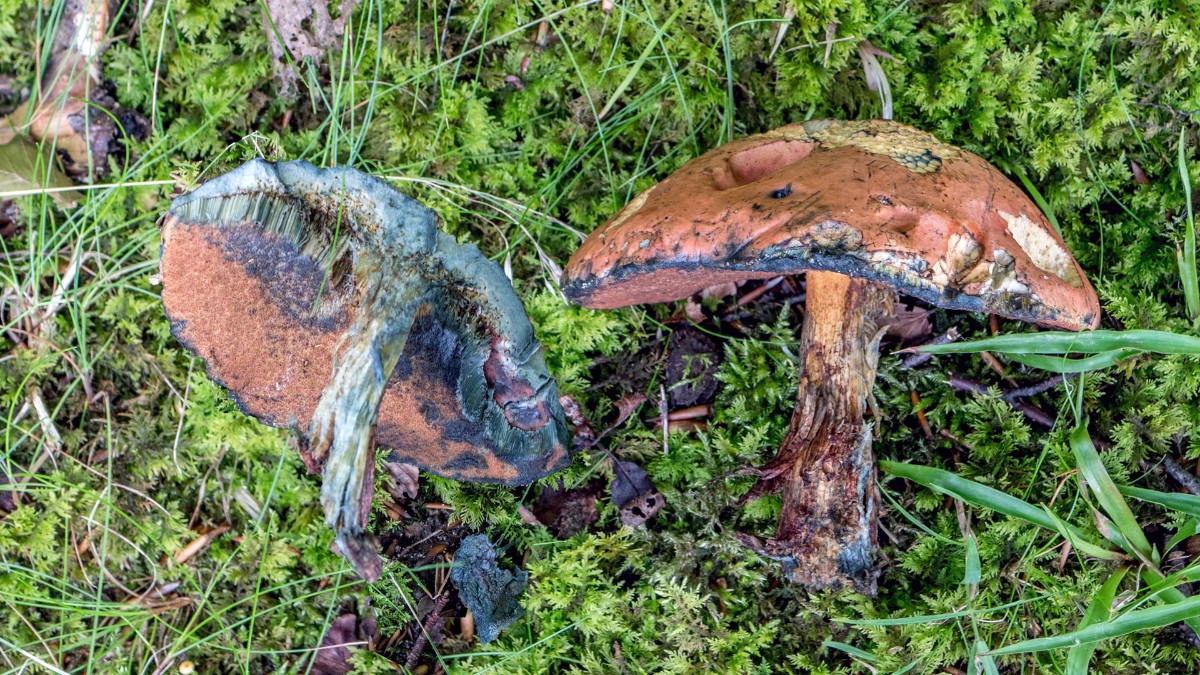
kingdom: Fungi
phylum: Basidiomycota
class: Agaricomycetes
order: Boletales
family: Boletaceae
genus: Suillellus
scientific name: Suillellus
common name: indigorørhat
